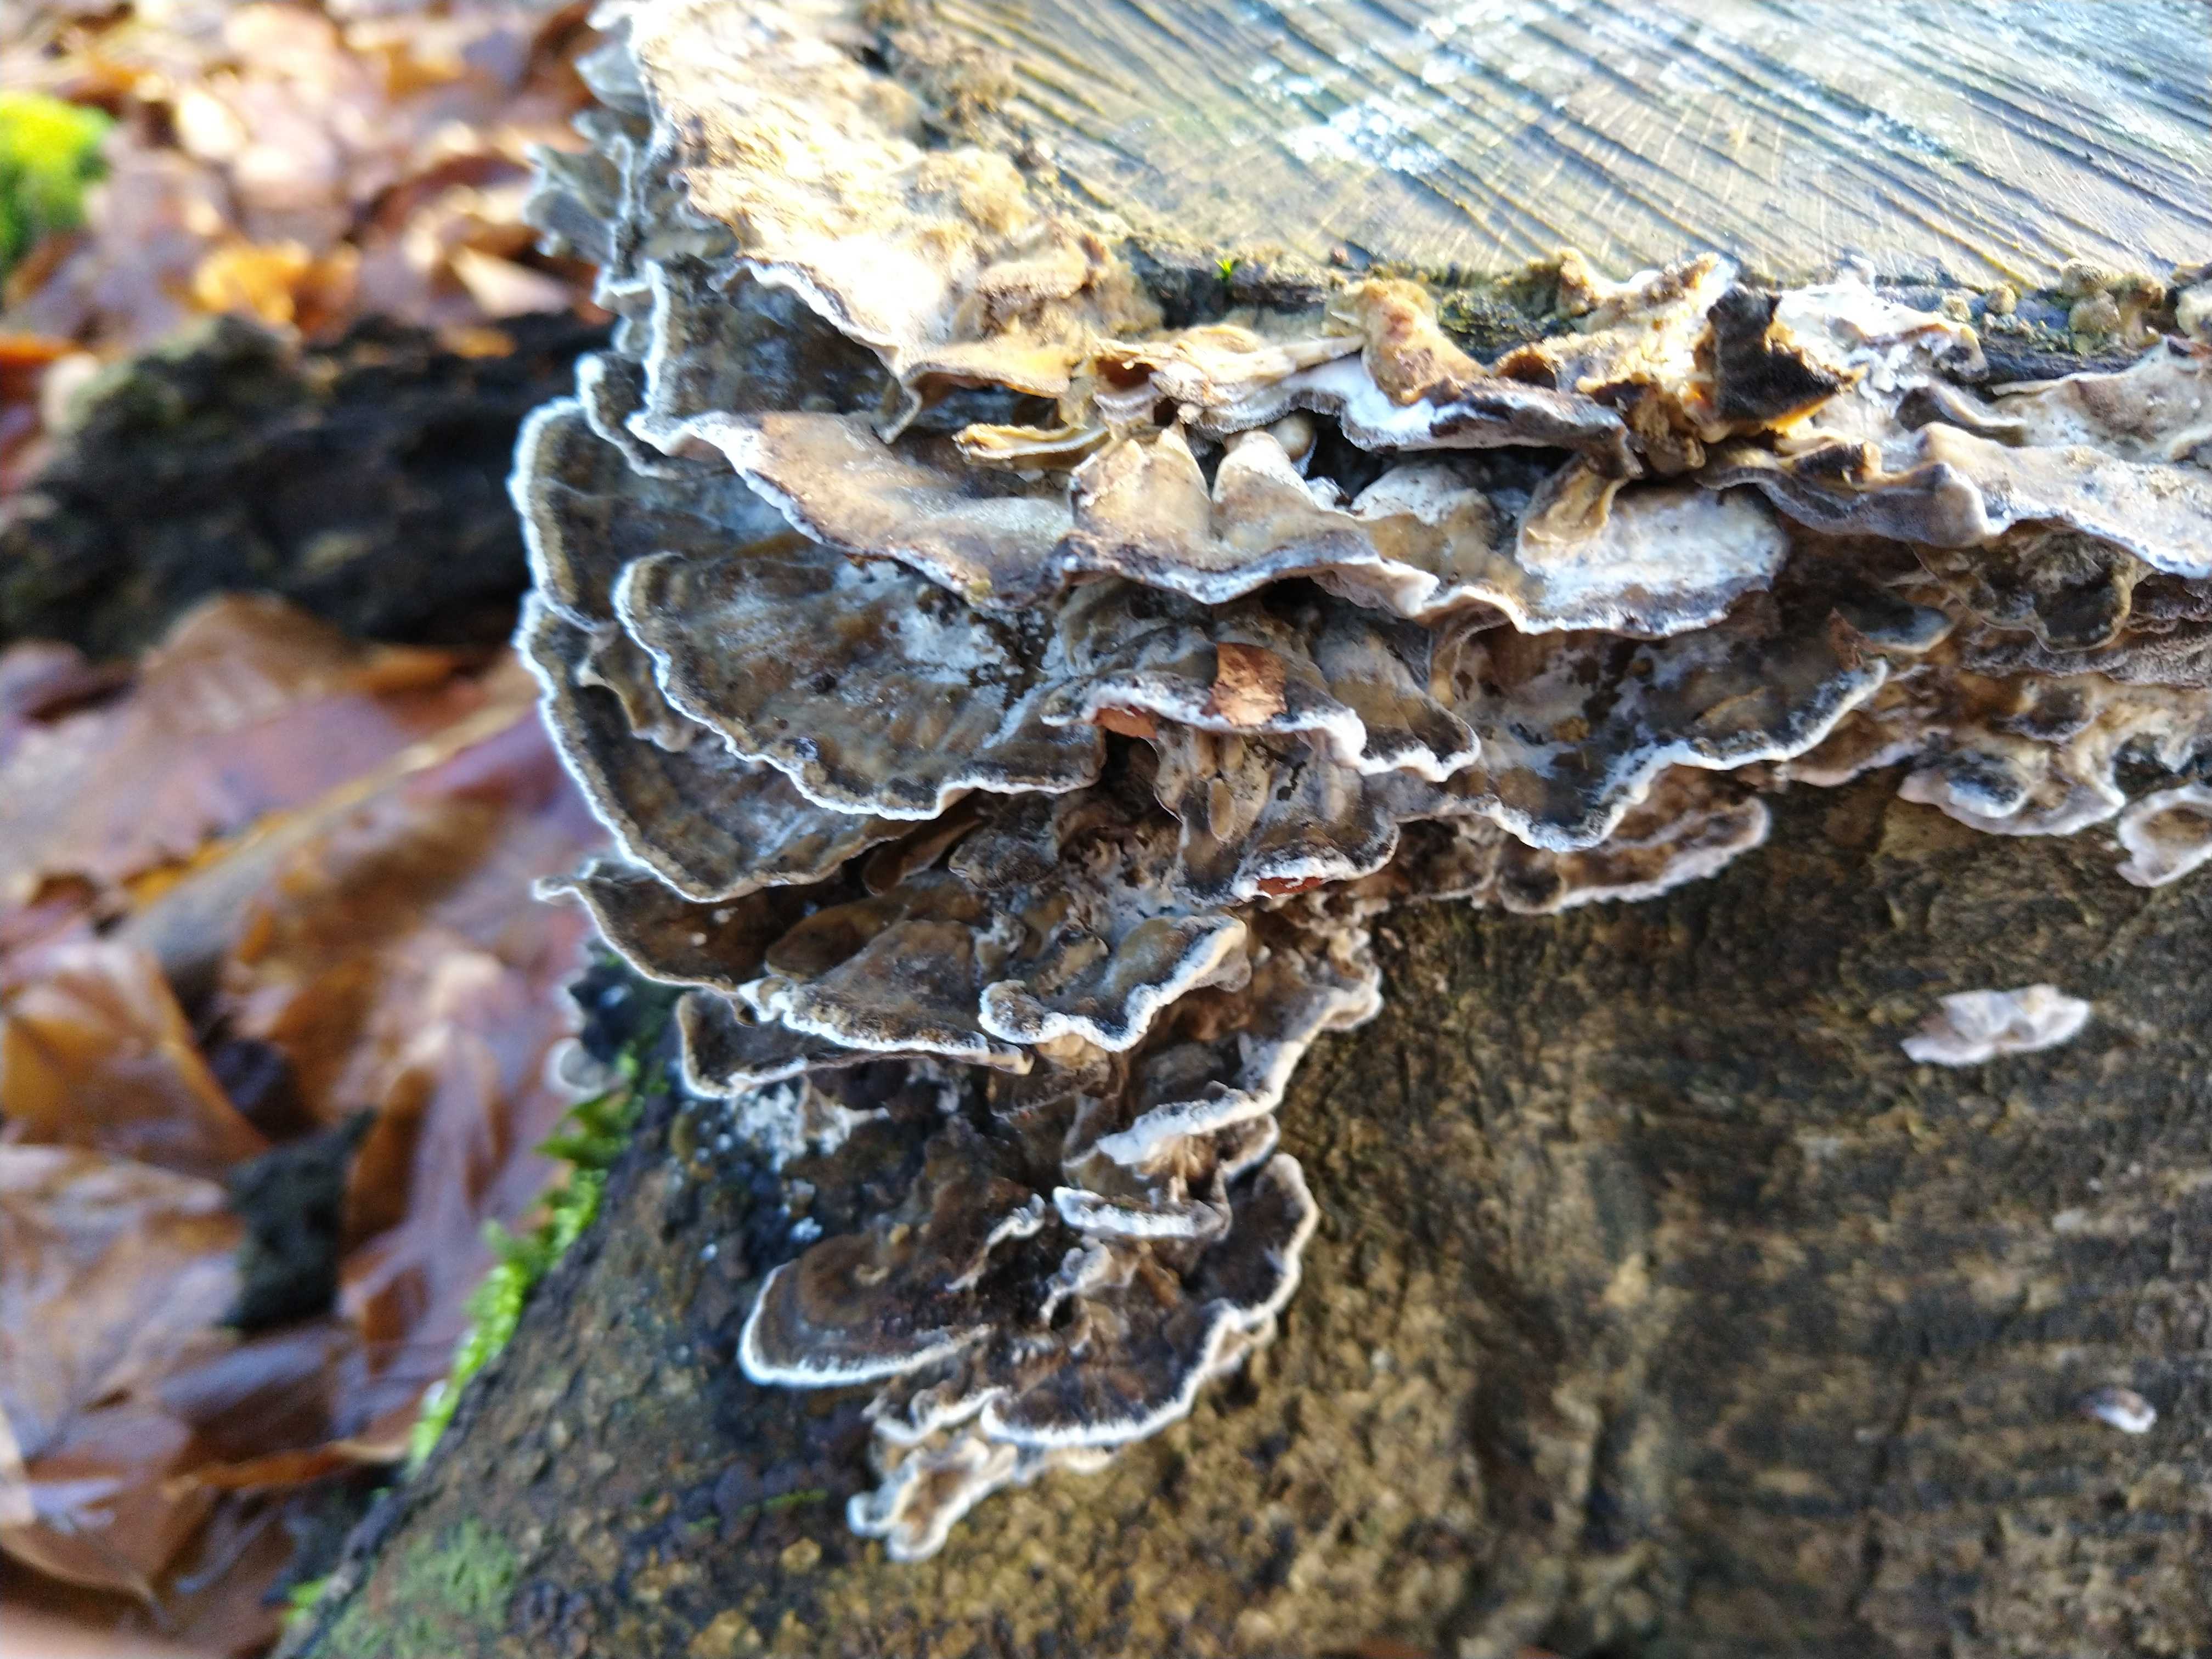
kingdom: Fungi
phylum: Basidiomycota
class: Agaricomycetes
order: Polyporales
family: Polyporaceae
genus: Trametes
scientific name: Trametes versicolor
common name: broget læderporesvamp
